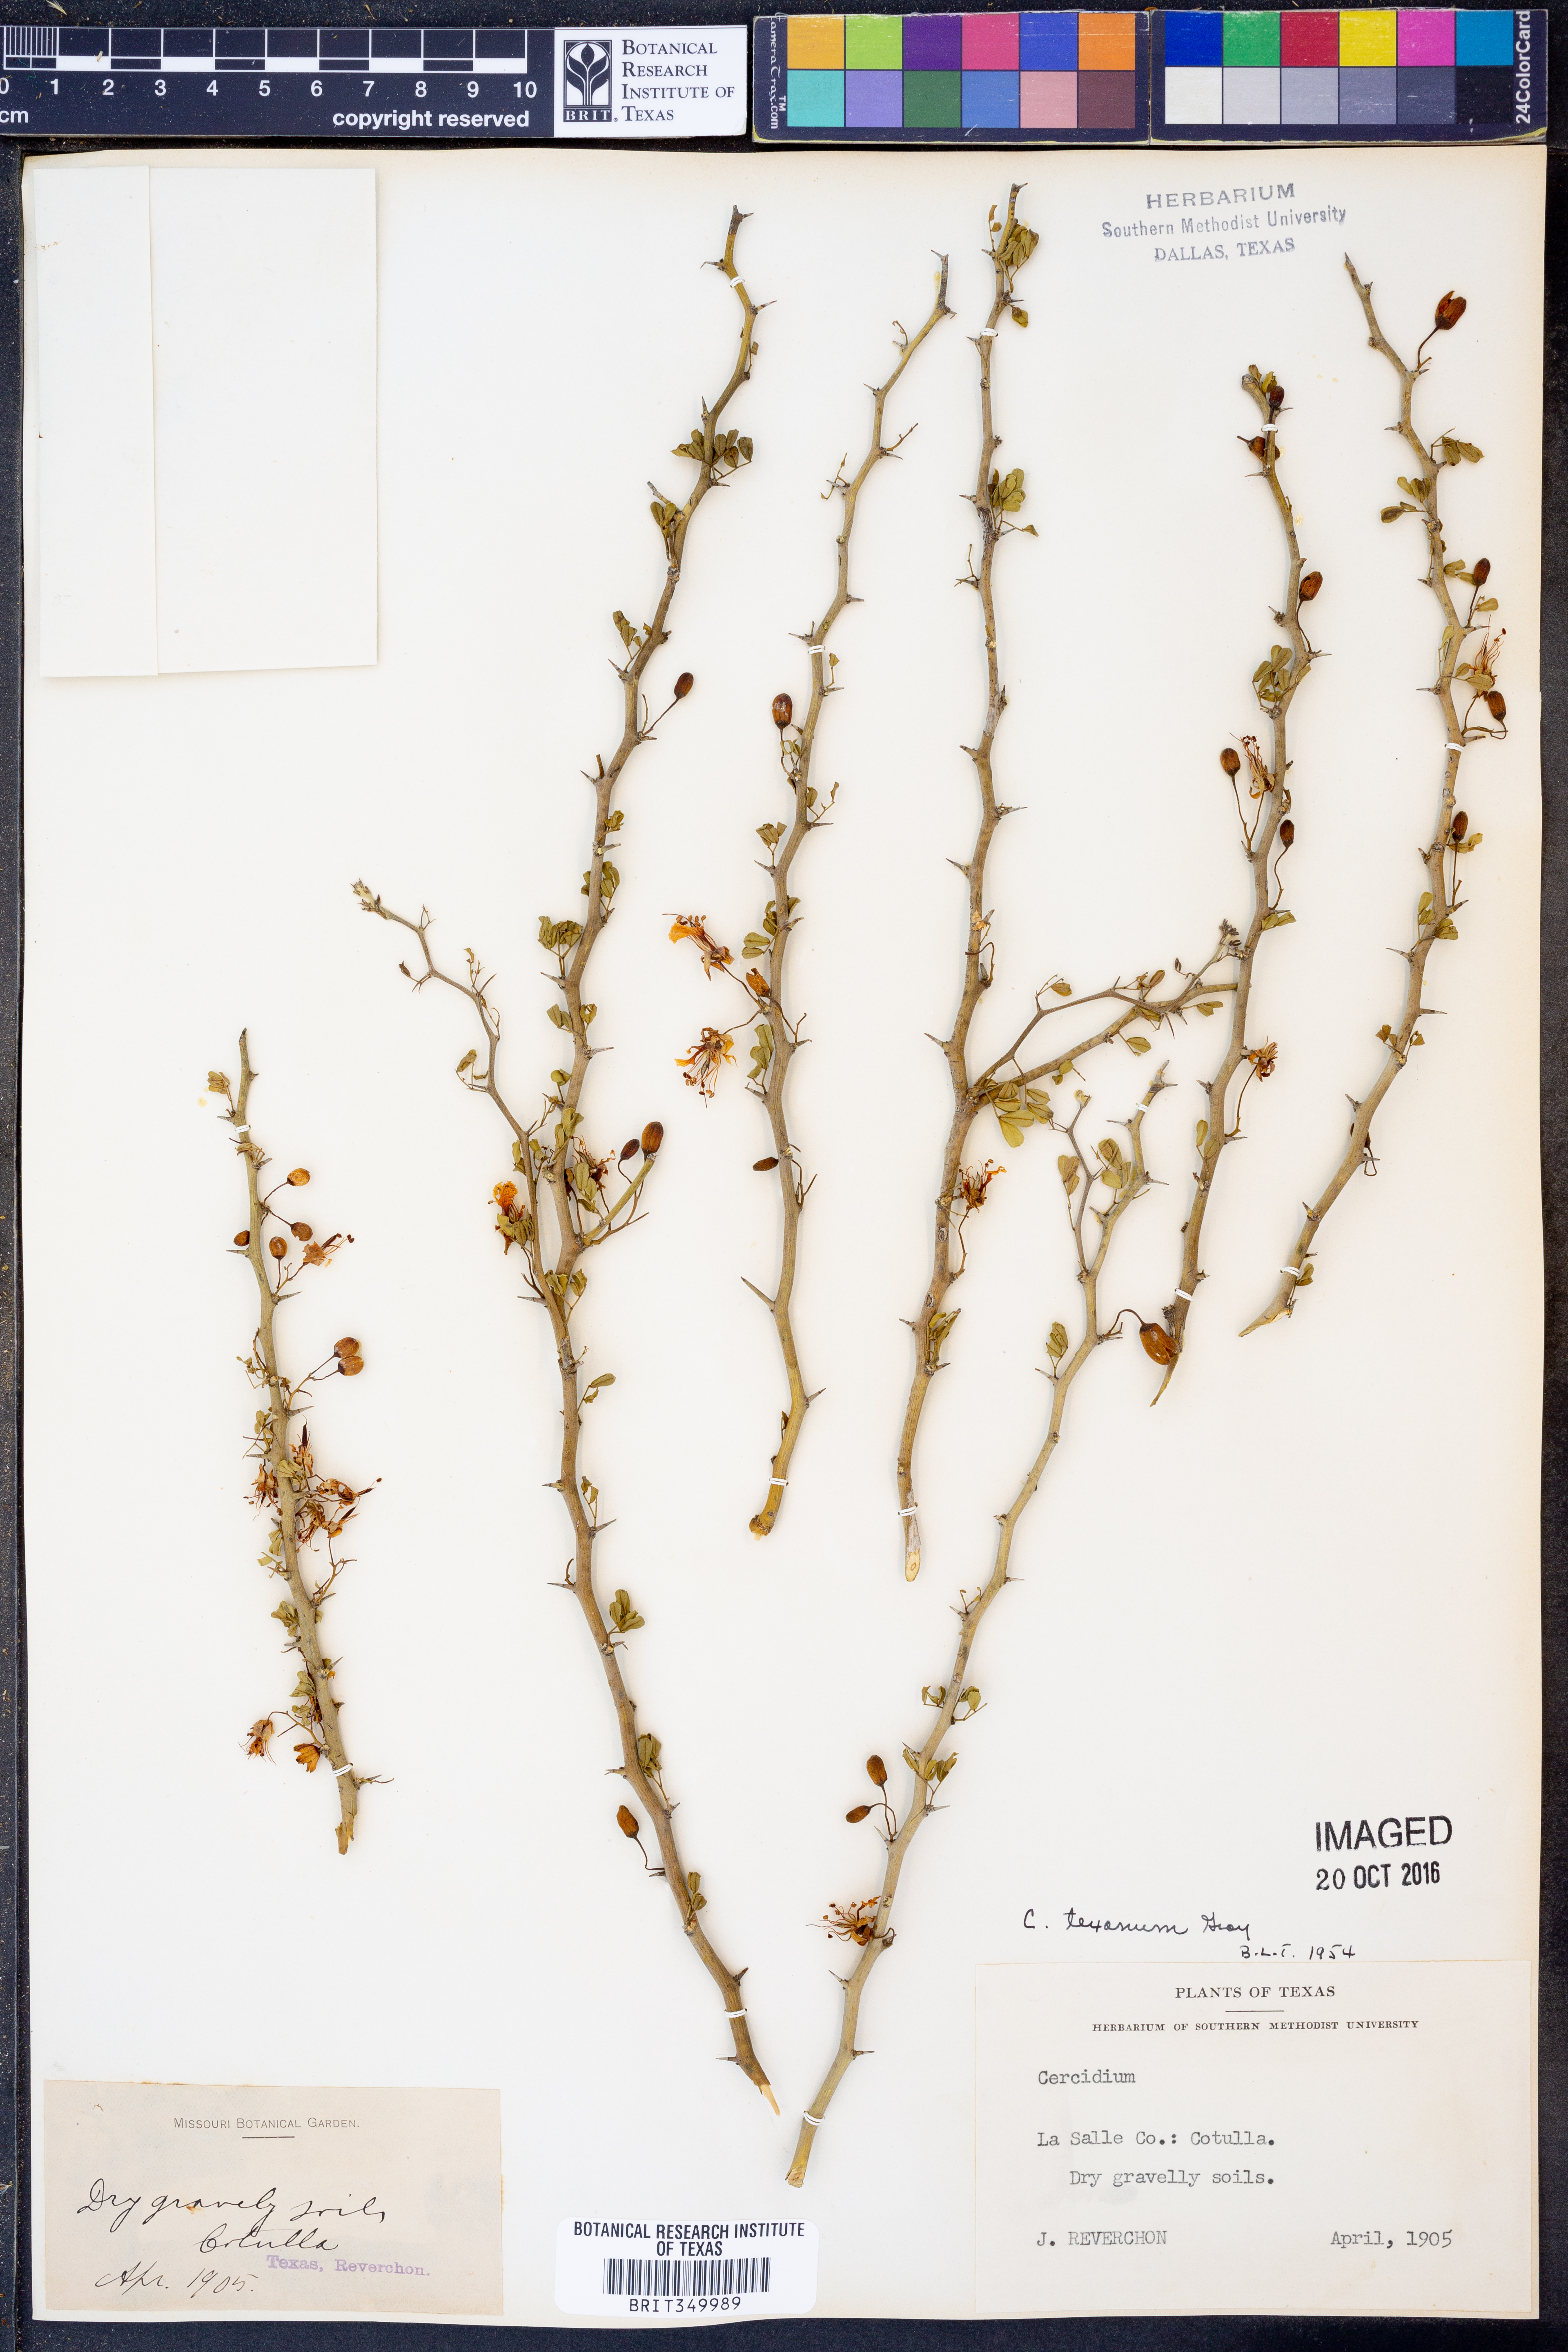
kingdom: Plantae
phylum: Tracheophyta
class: Magnoliopsida
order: Fabales
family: Fabaceae
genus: Parkinsonia
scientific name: Parkinsonia texana
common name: Texas paloverde
